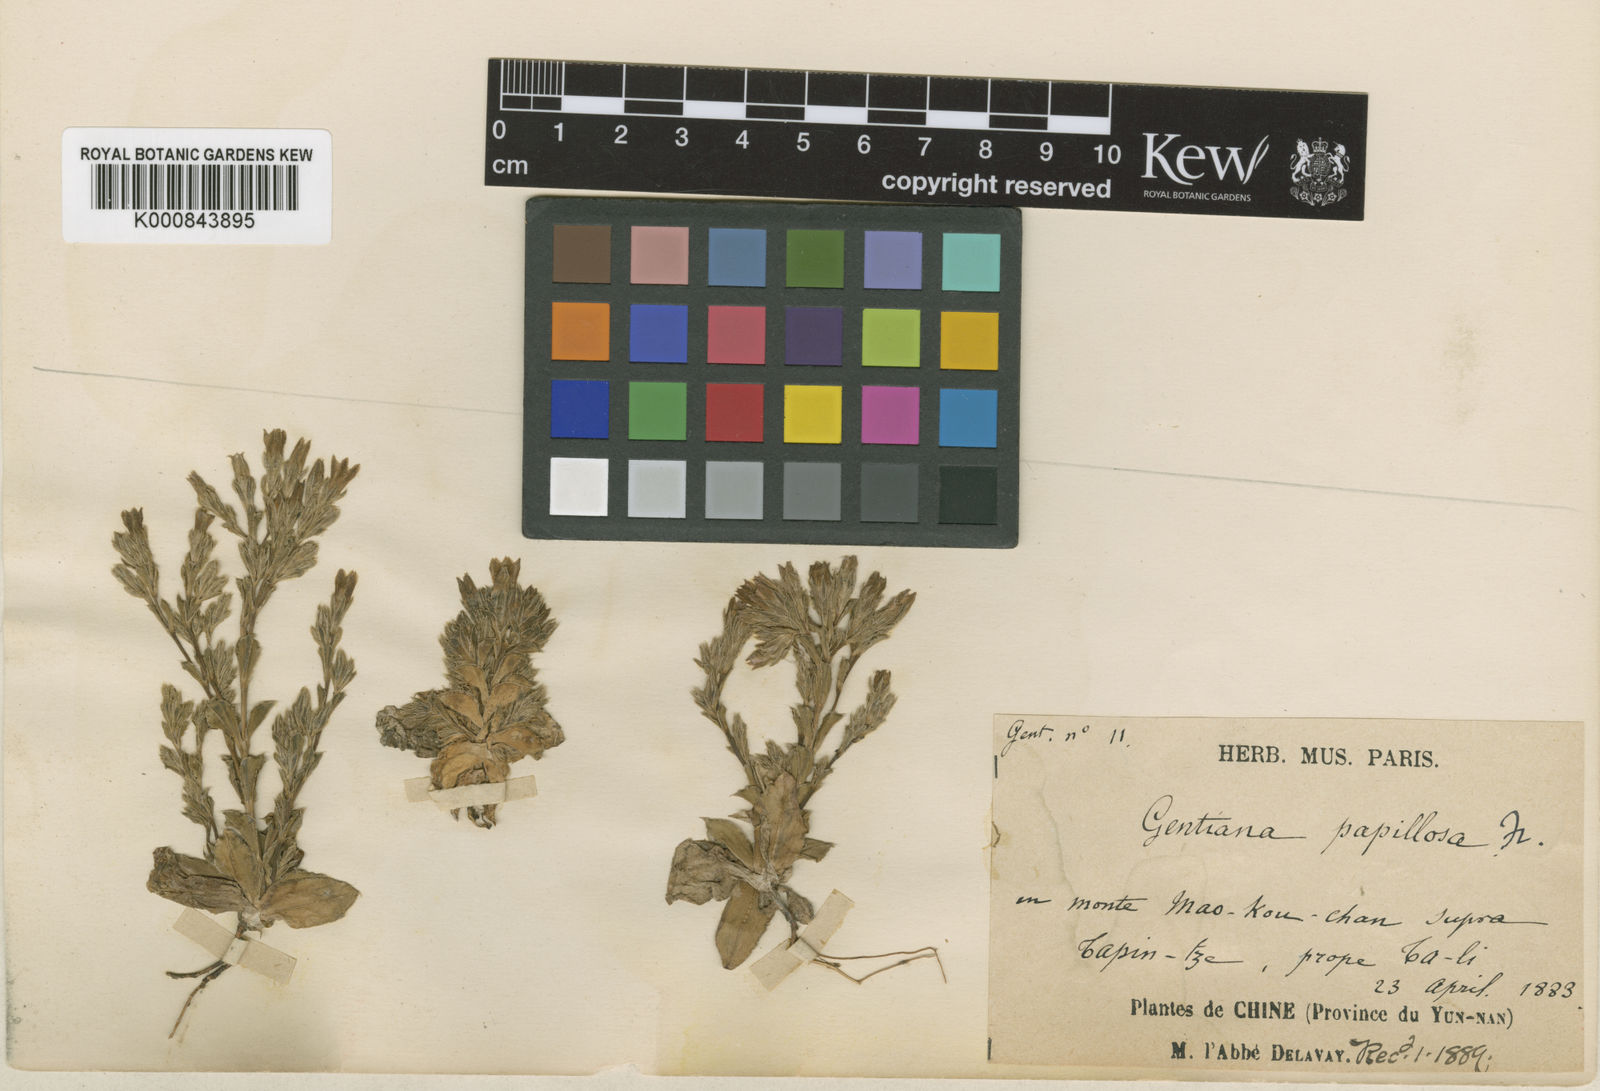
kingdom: Plantae
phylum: Tracheophyta
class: Magnoliopsida
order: Gentianales
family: Gentianaceae
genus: Gentiana
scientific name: Gentiana papillosa
